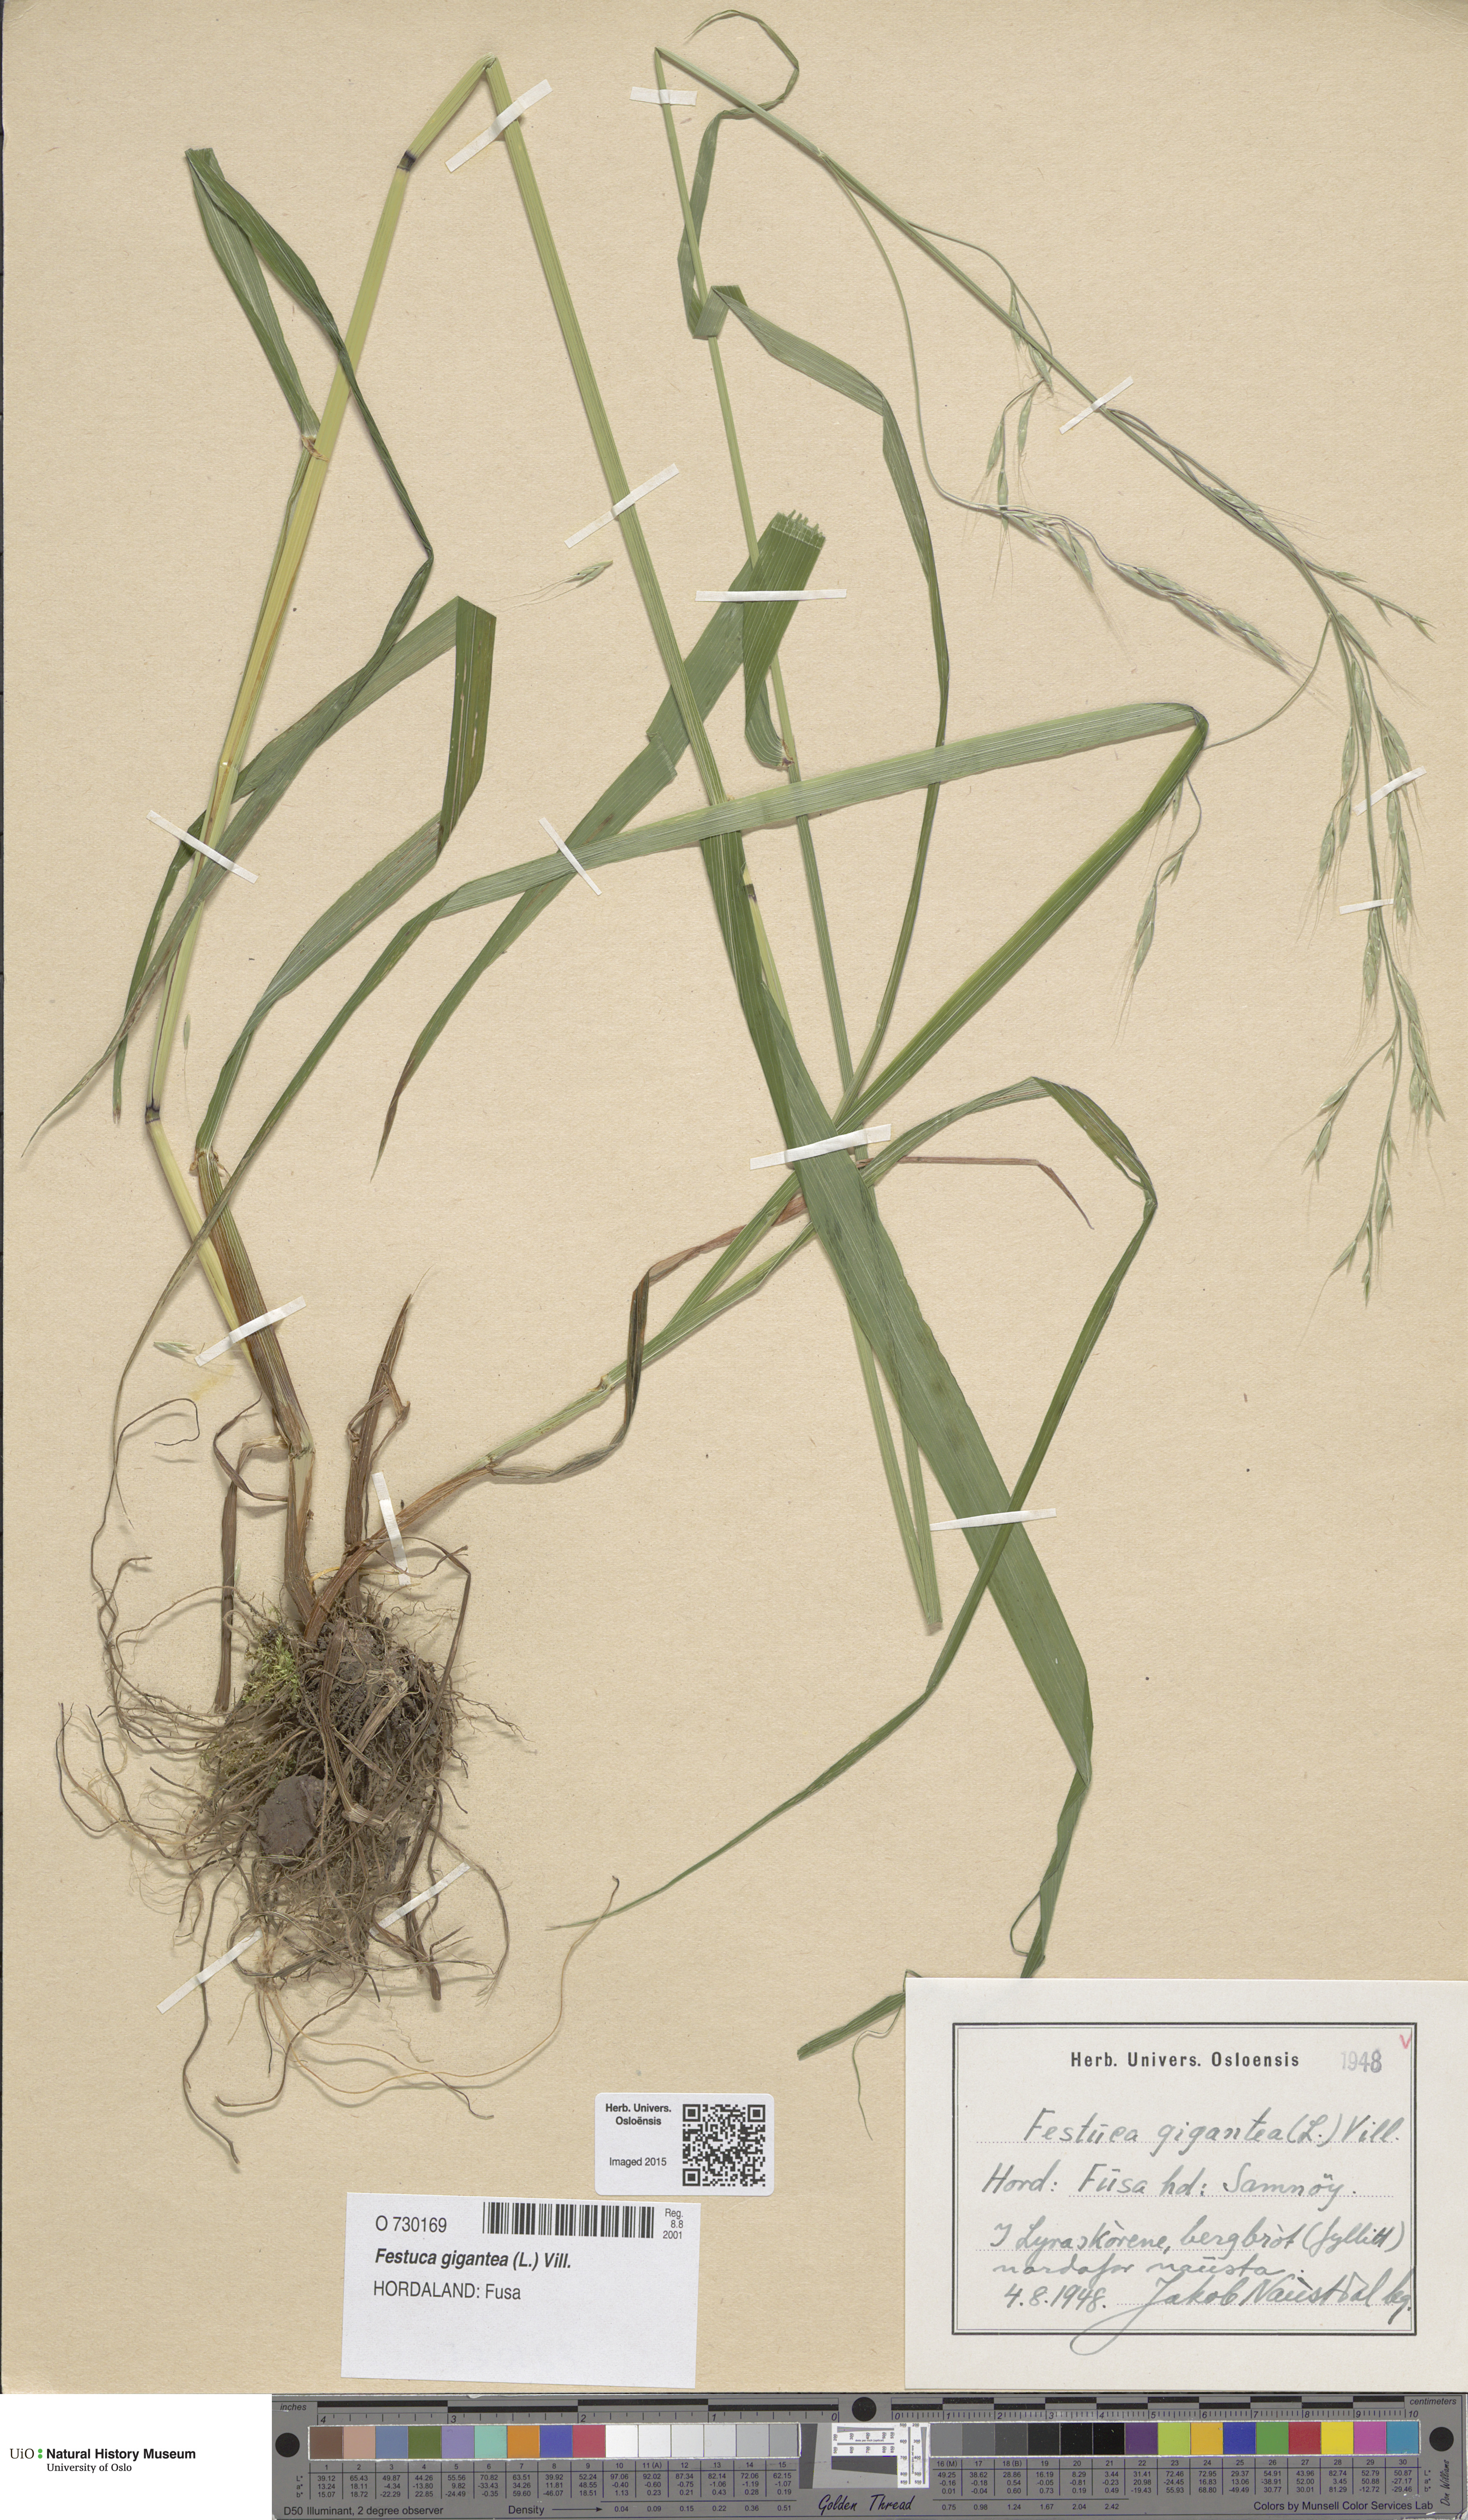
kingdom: Plantae
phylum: Tracheophyta
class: Liliopsida
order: Poales
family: Poaceae
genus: Lolium
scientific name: Lolium giganteum
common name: Giant fescue
